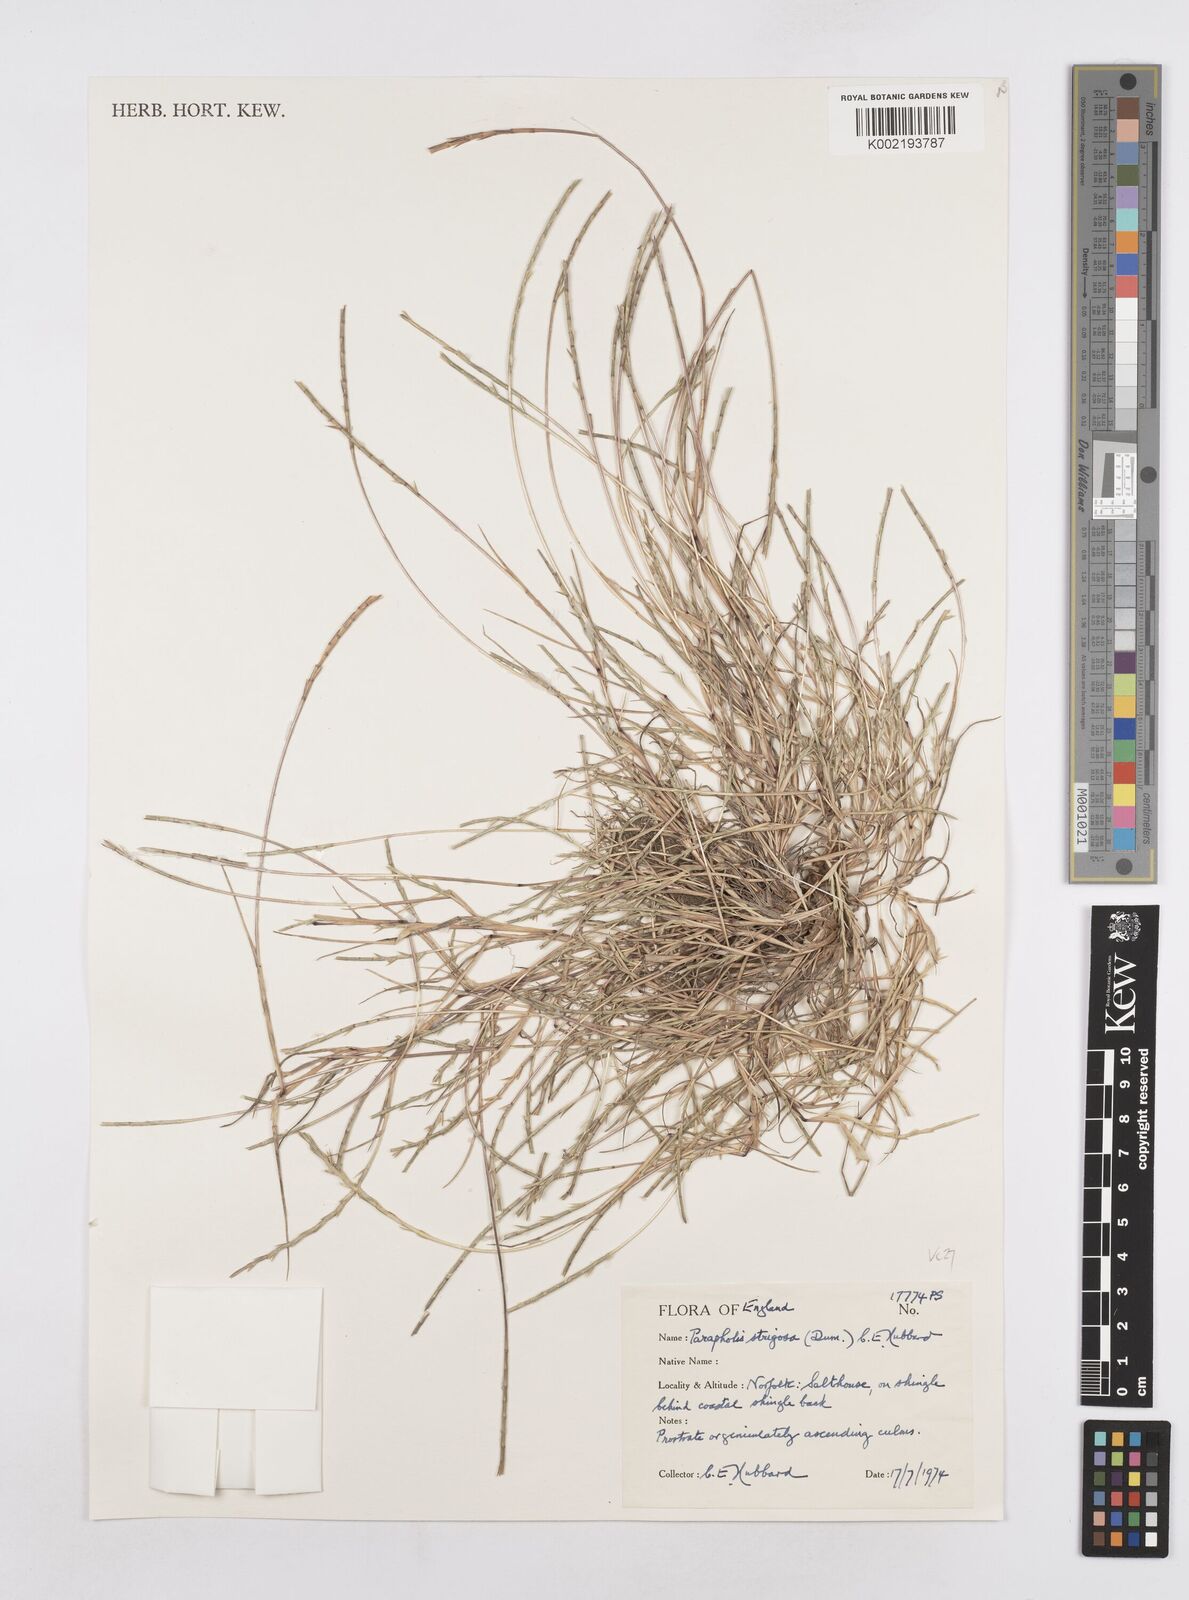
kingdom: Plantae
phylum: Tracheophyta
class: Liliopsida
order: Poales
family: Poaceae
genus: Parapholis
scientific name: Parapholis strigosa
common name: Hard-grass
